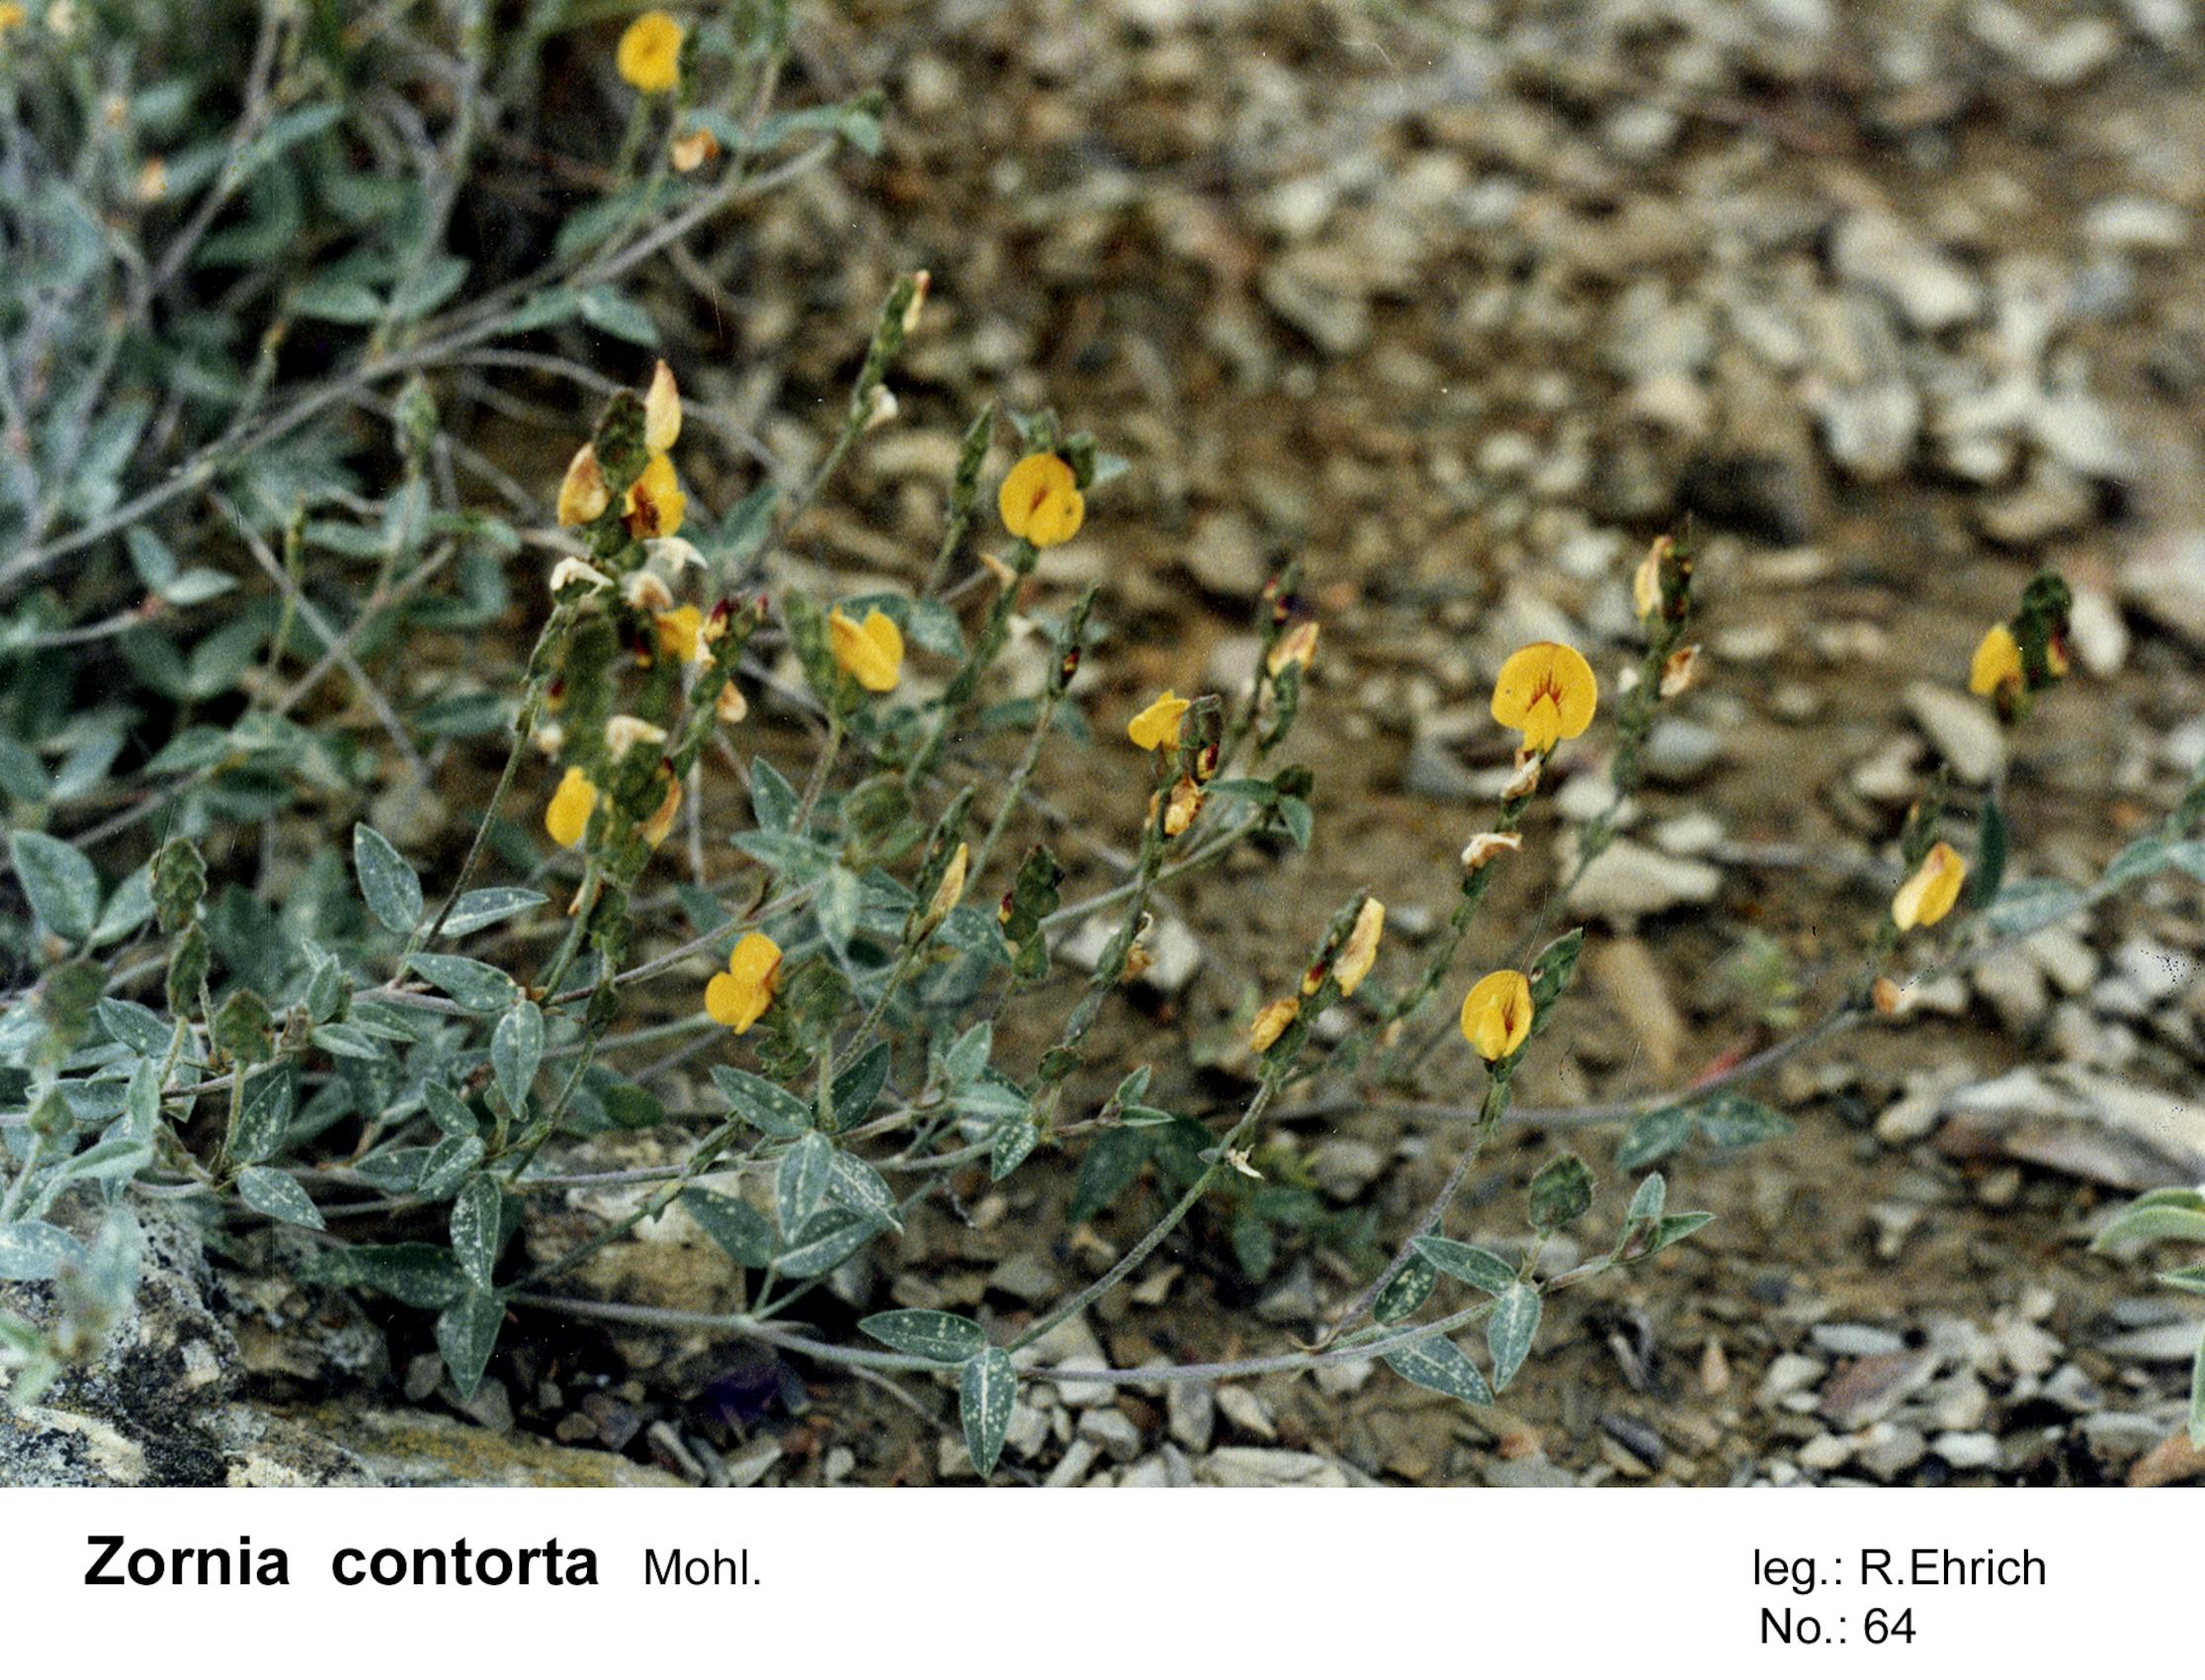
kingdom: Plantae
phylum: Tracheophyta
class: Magnoliopsida
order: Fabales
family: Fabaceae
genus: Zornia
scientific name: Zornia contorta
